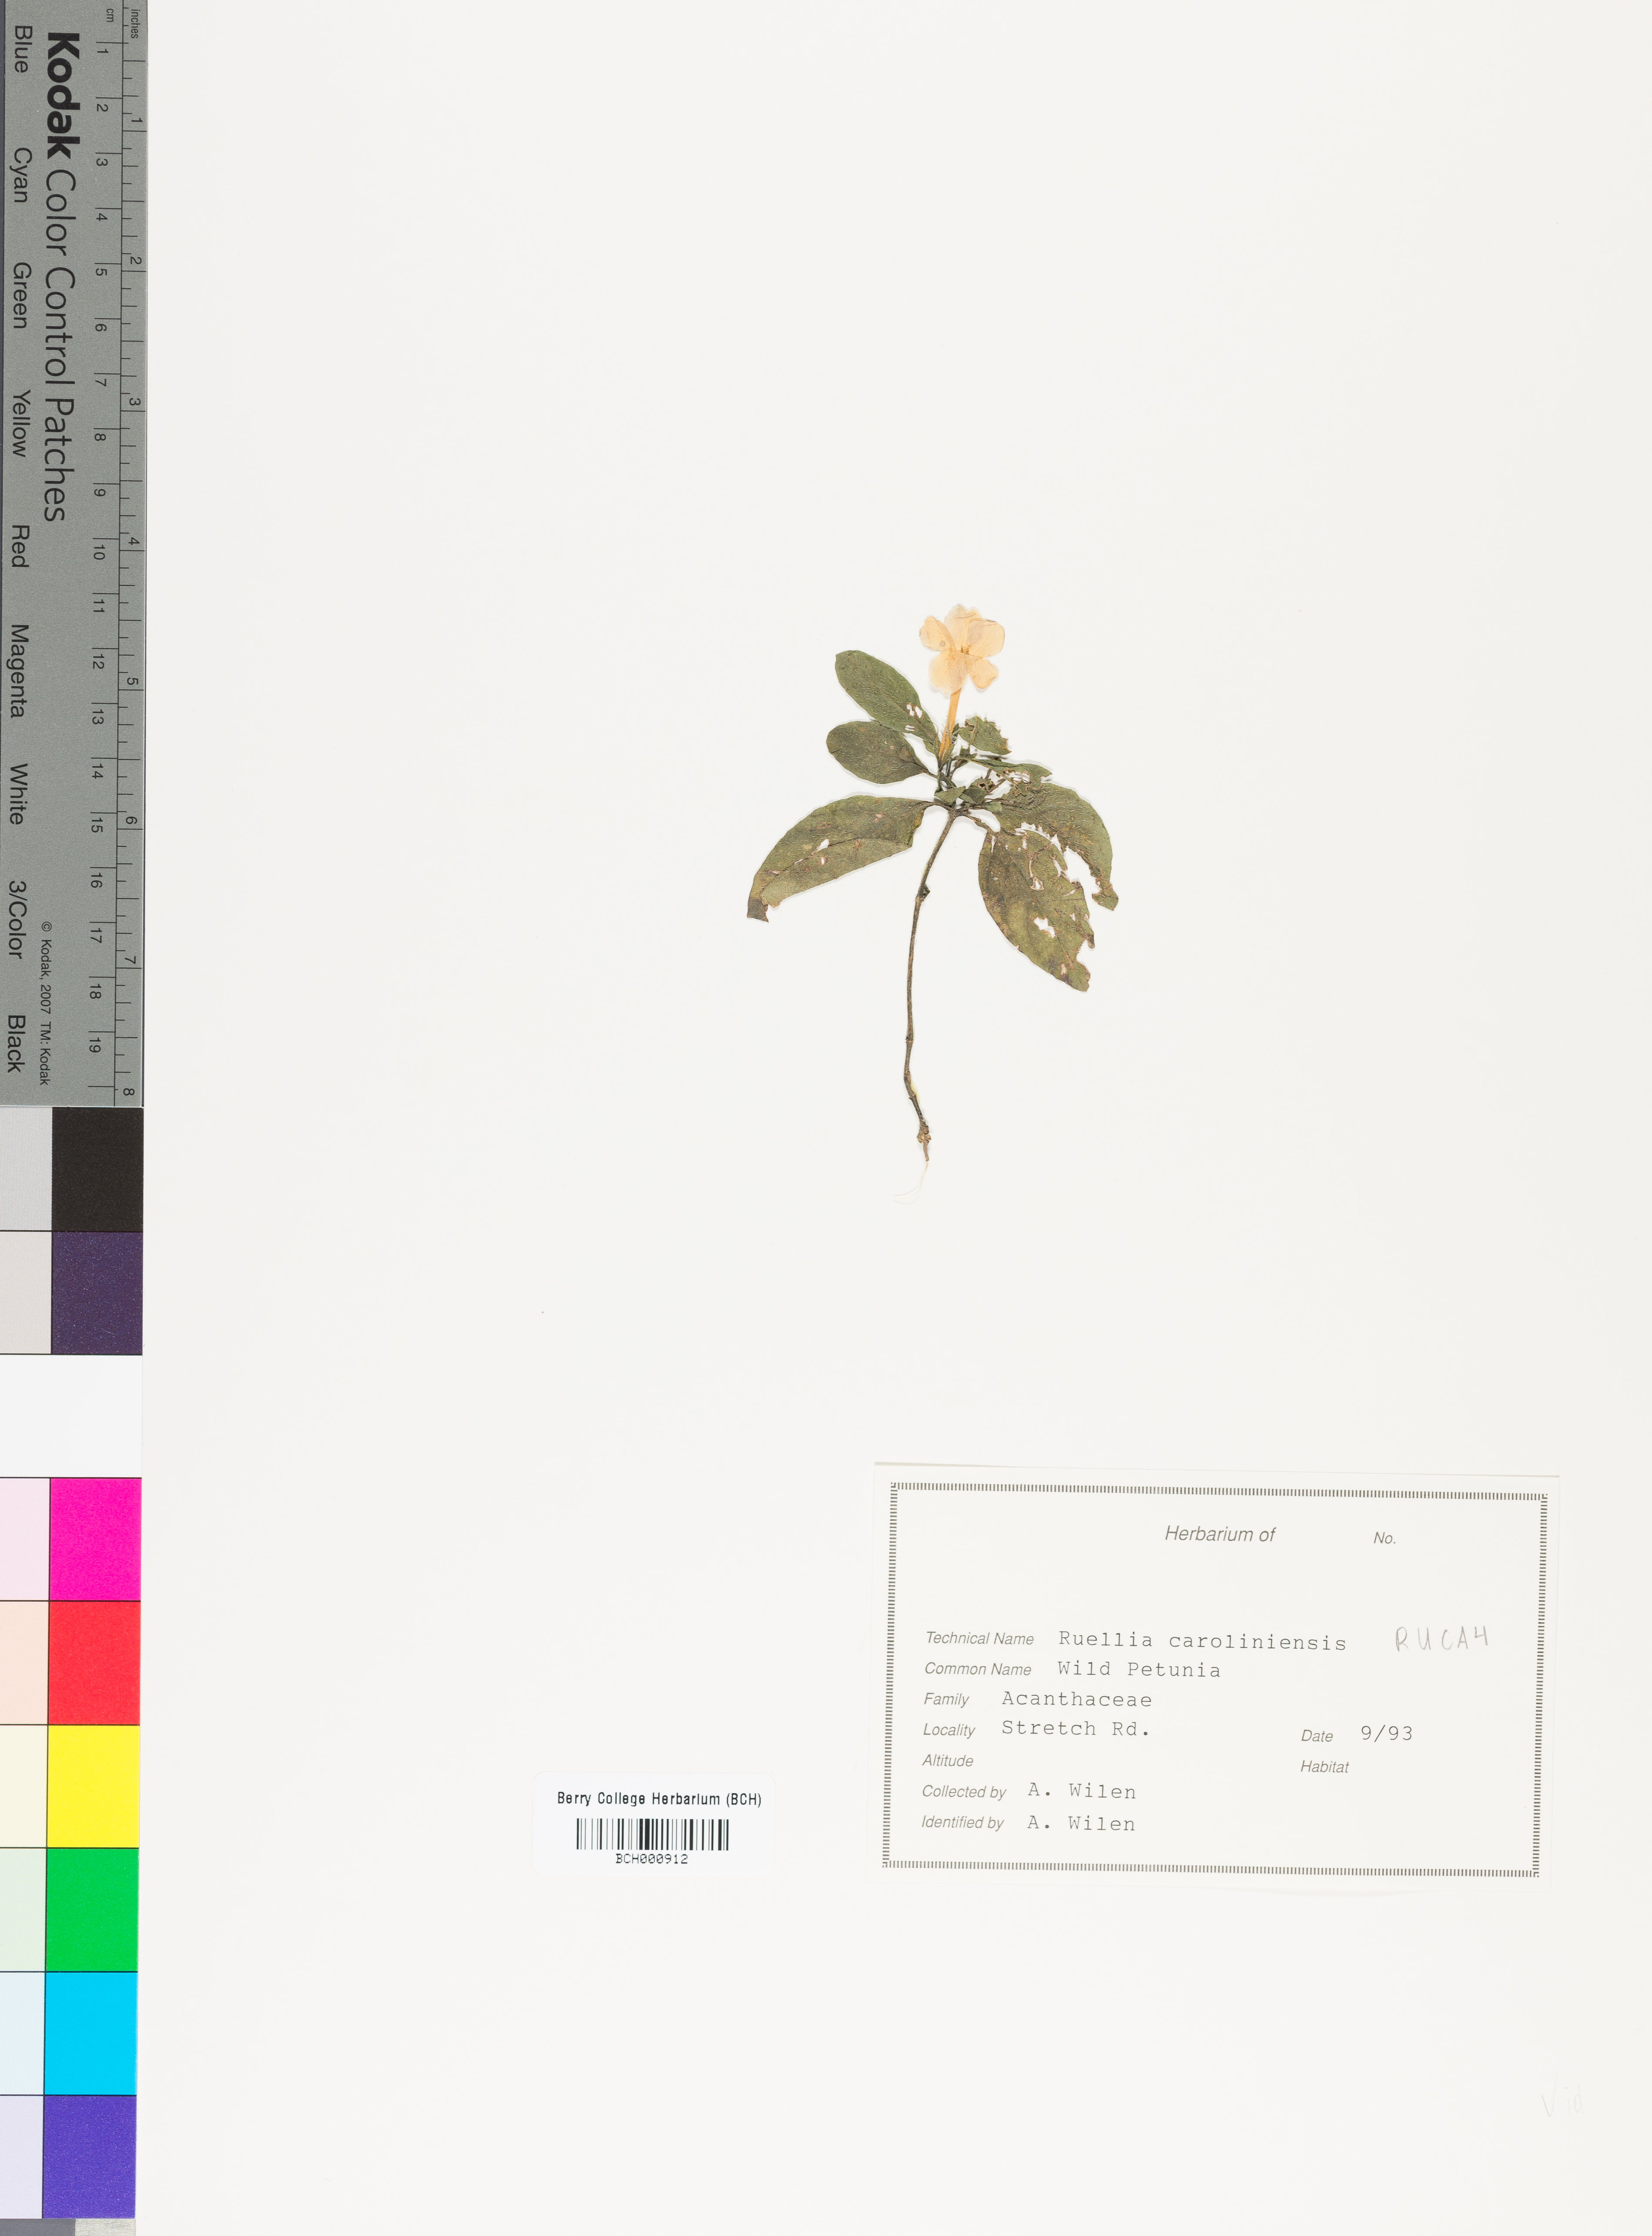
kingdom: Plantae
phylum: Tracheophyta
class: Magnoliopsida
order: Lamiales
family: Acanthaceae
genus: Ruellia
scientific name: Ruellia caroliniensis
